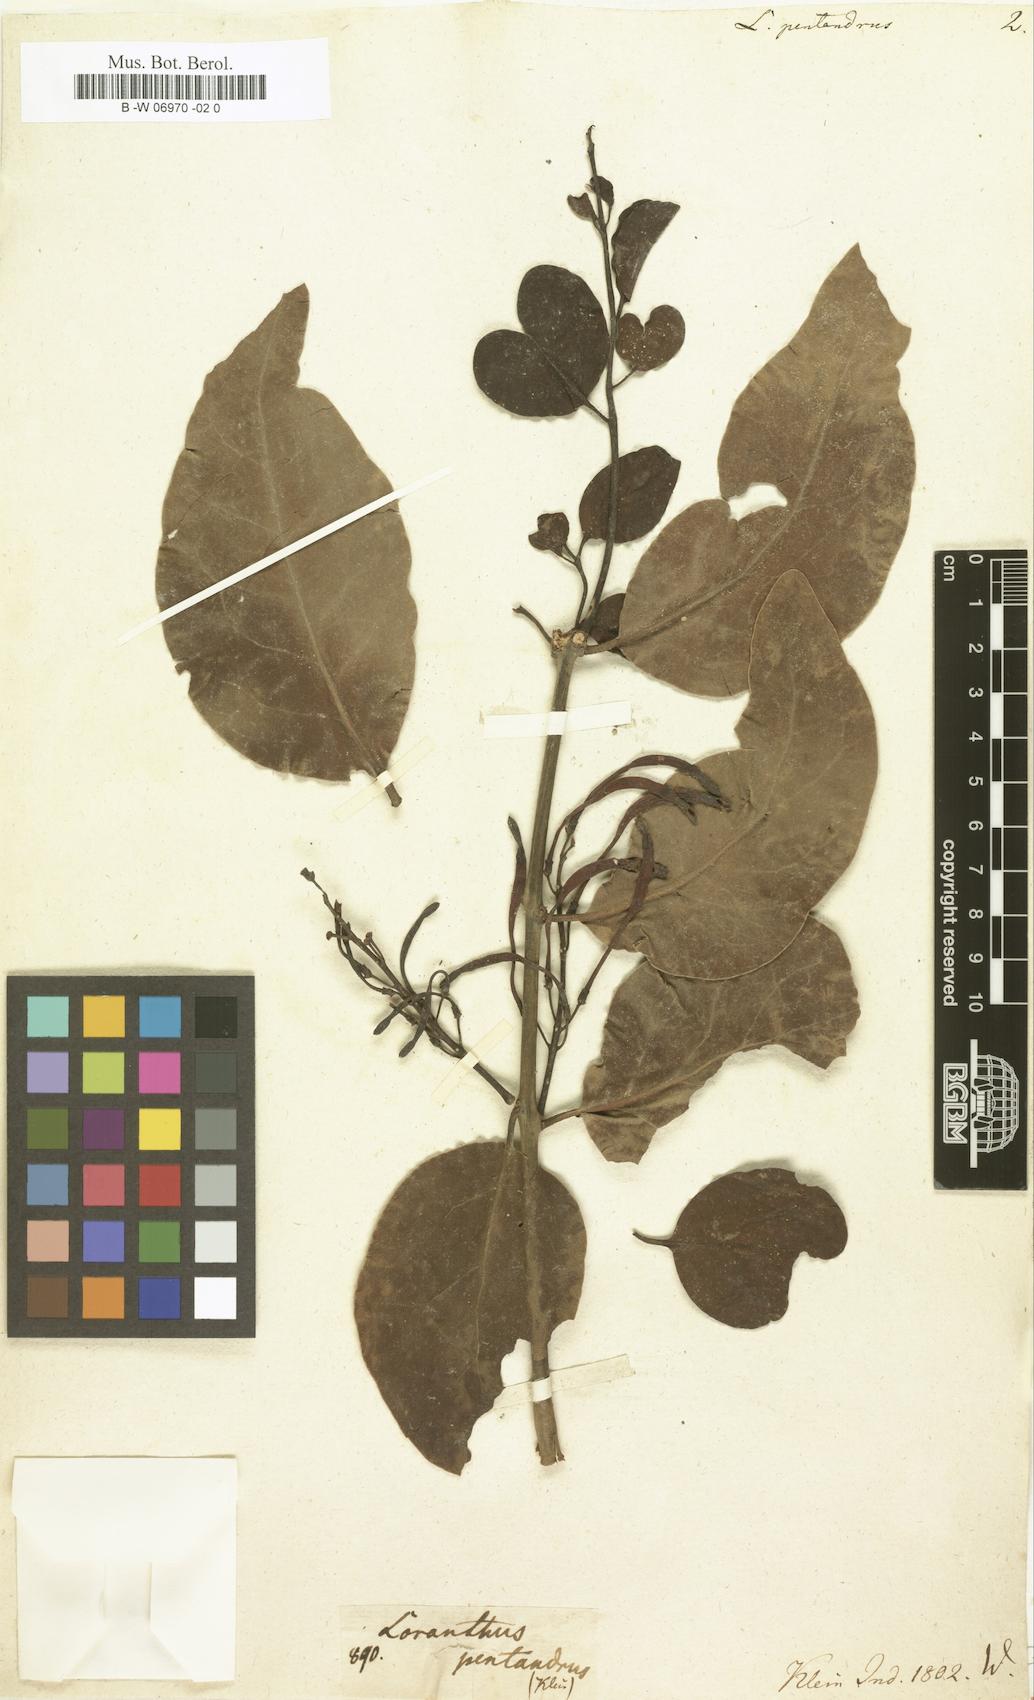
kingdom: Plantae
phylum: Tracheophyta
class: Magnoliopsida
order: Santalales
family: Loranthaceae
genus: Dendrophthoe
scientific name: Dendrophthoe
